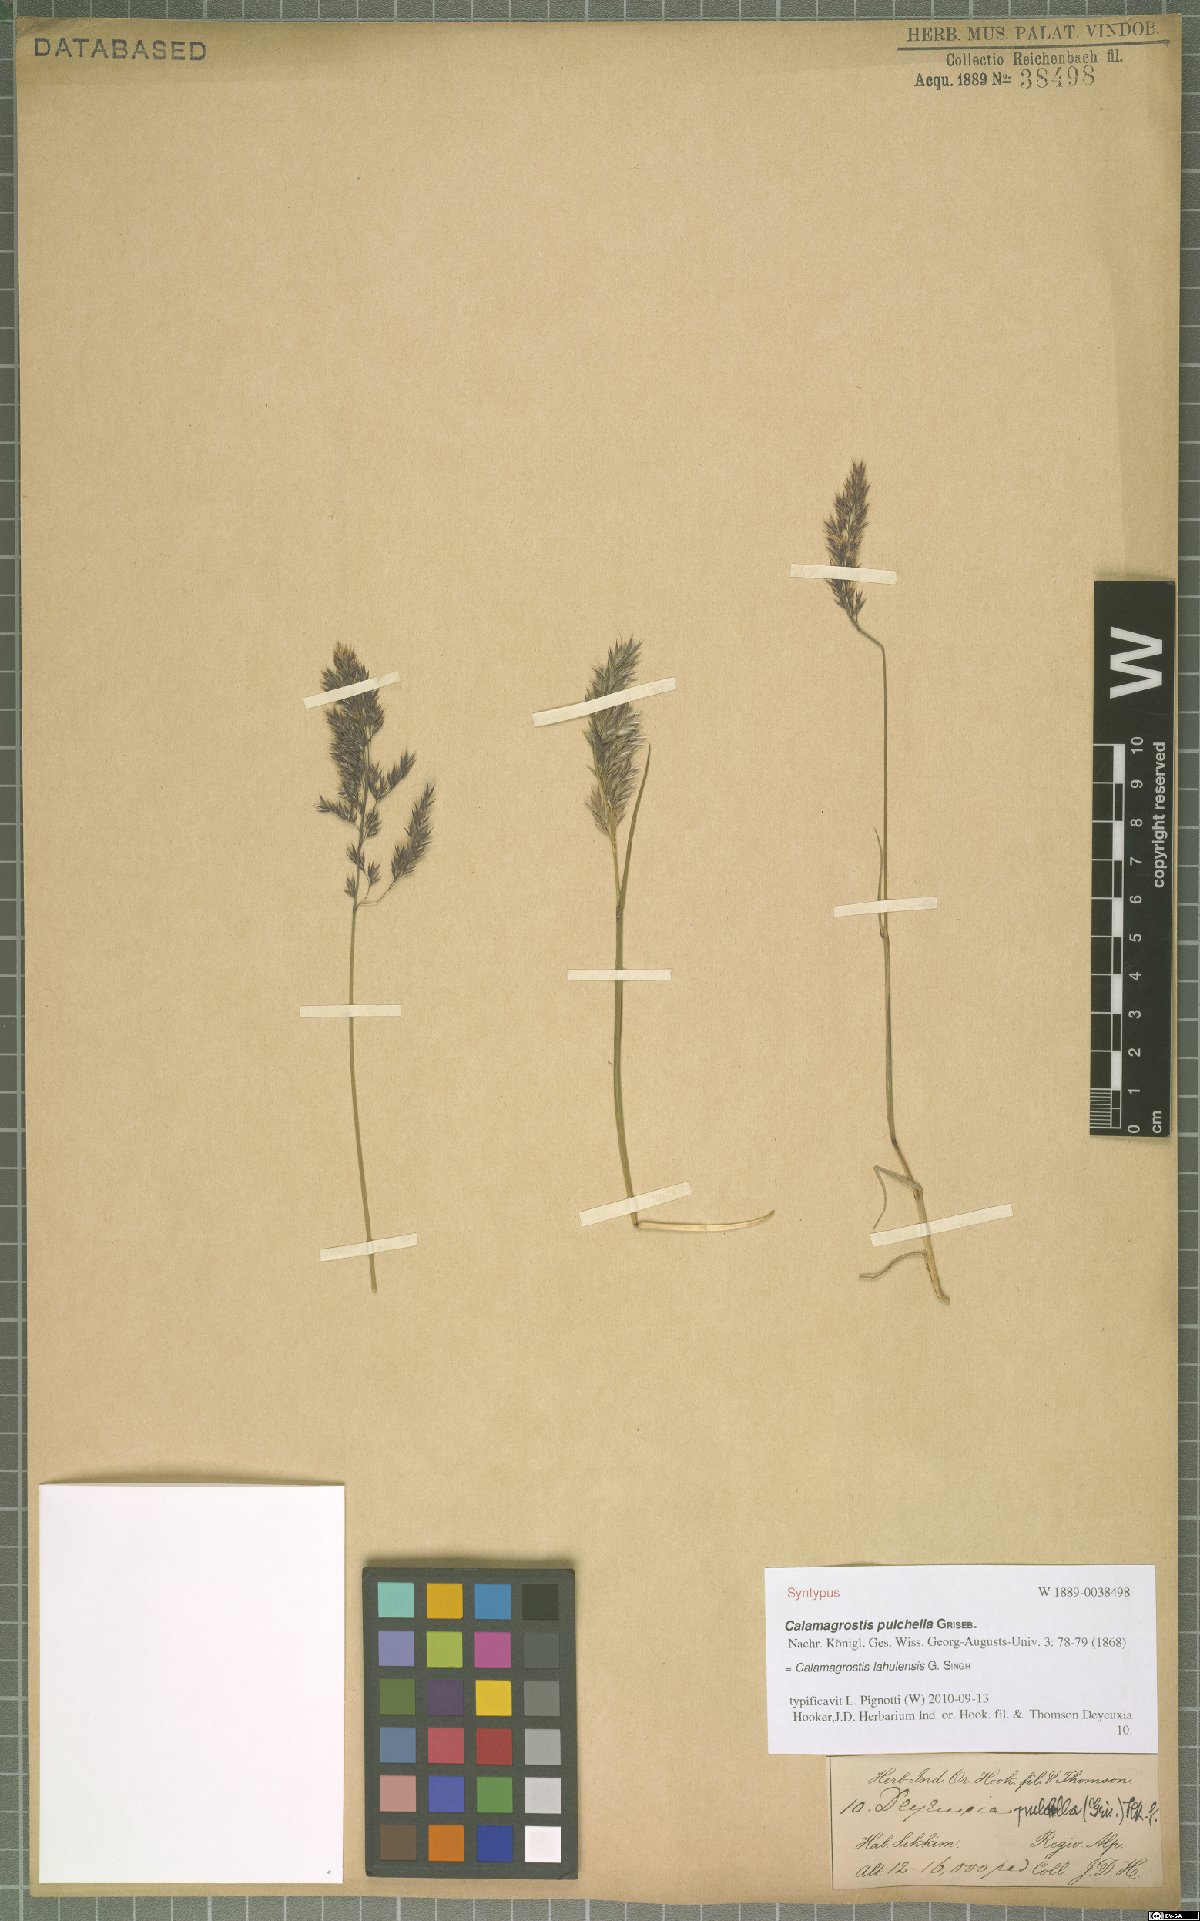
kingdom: Plantae
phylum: Tracheophyta
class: Liliopsida
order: Poales
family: Poaceae
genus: Calamagrostis
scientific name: Calamagrostis lahulensis
